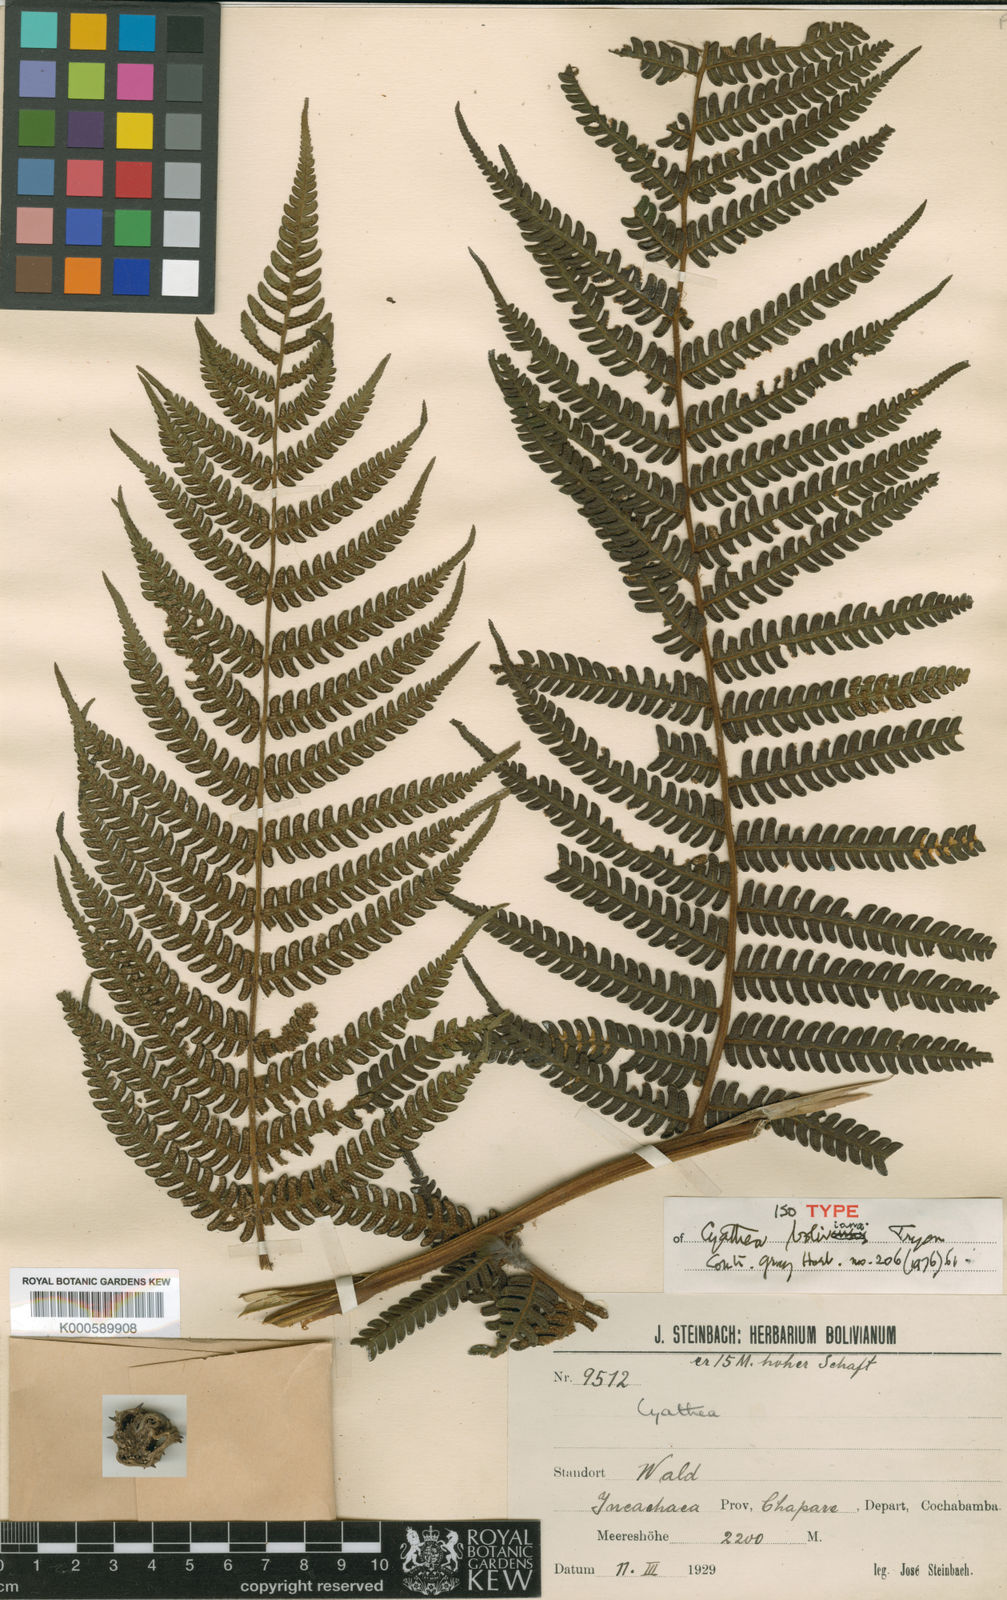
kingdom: Plantae
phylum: Tracheophyta
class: Polypodiopsida
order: Cyatheales
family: Cyatheaceae
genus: Cyathea
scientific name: Cyathea ruiziana
